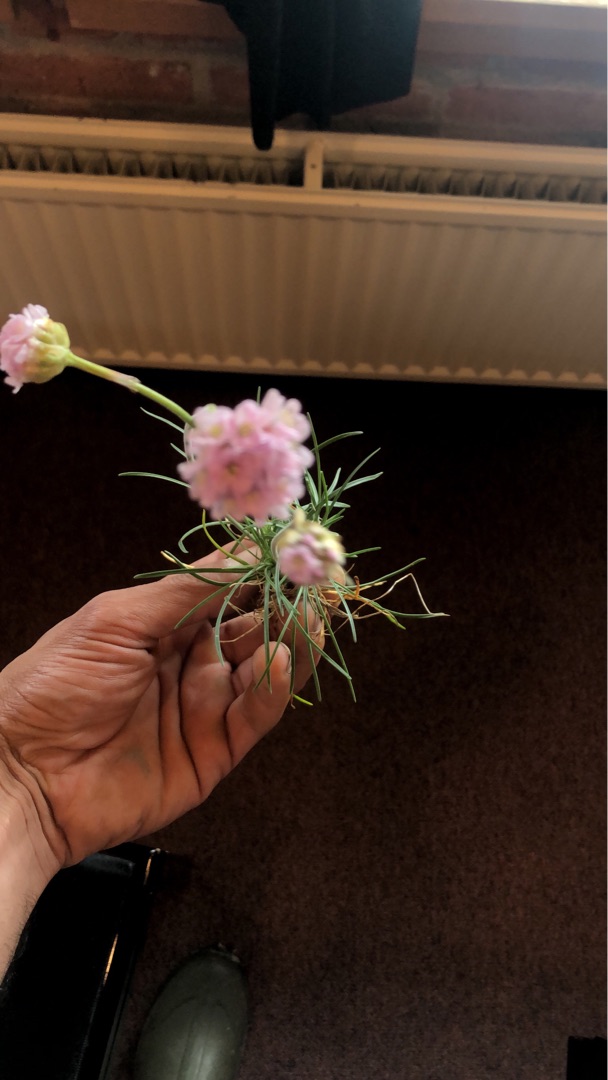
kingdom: Plantae
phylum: Tracheophyta
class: Magnoliopsida
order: Caryophyllales
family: Plumbaginaceae
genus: Armeria
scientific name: Armeria maritima
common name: Engelskgræs
